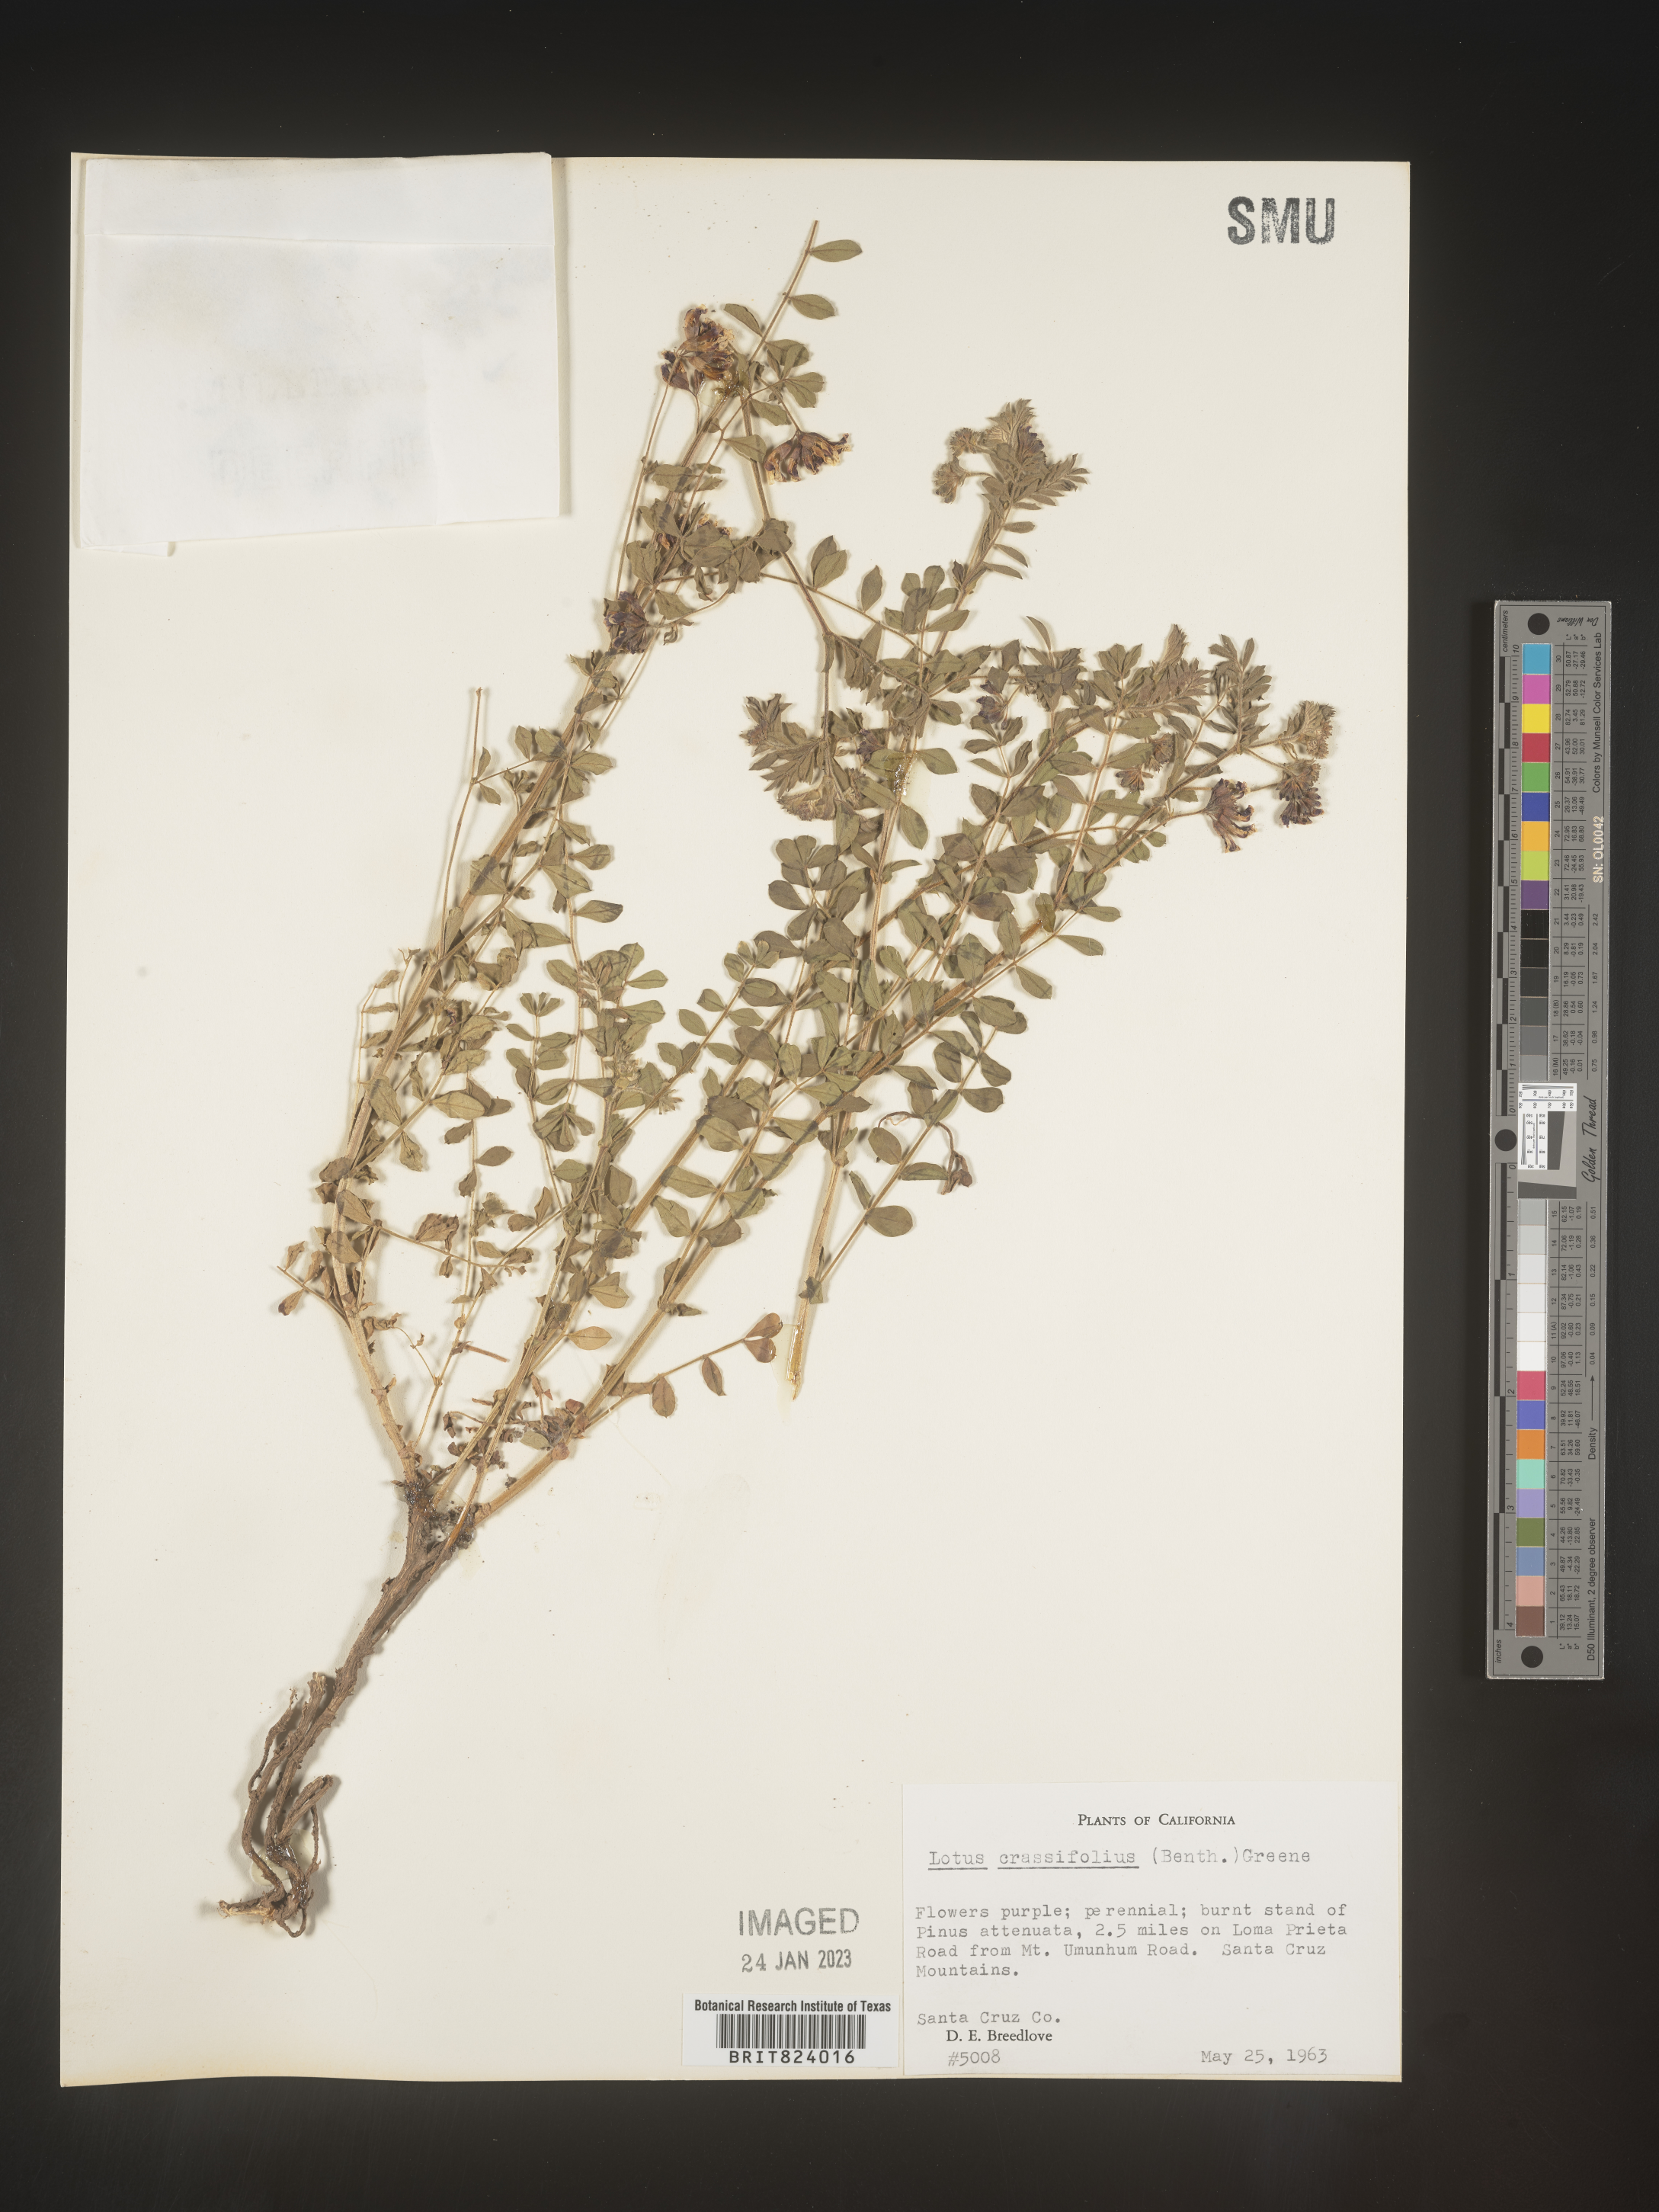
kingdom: Plantae
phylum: Tracheophyta
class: Magnoliopsida
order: Fabales
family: Fabaceae
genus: Hosackia
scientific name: Hosackia crassifolia
